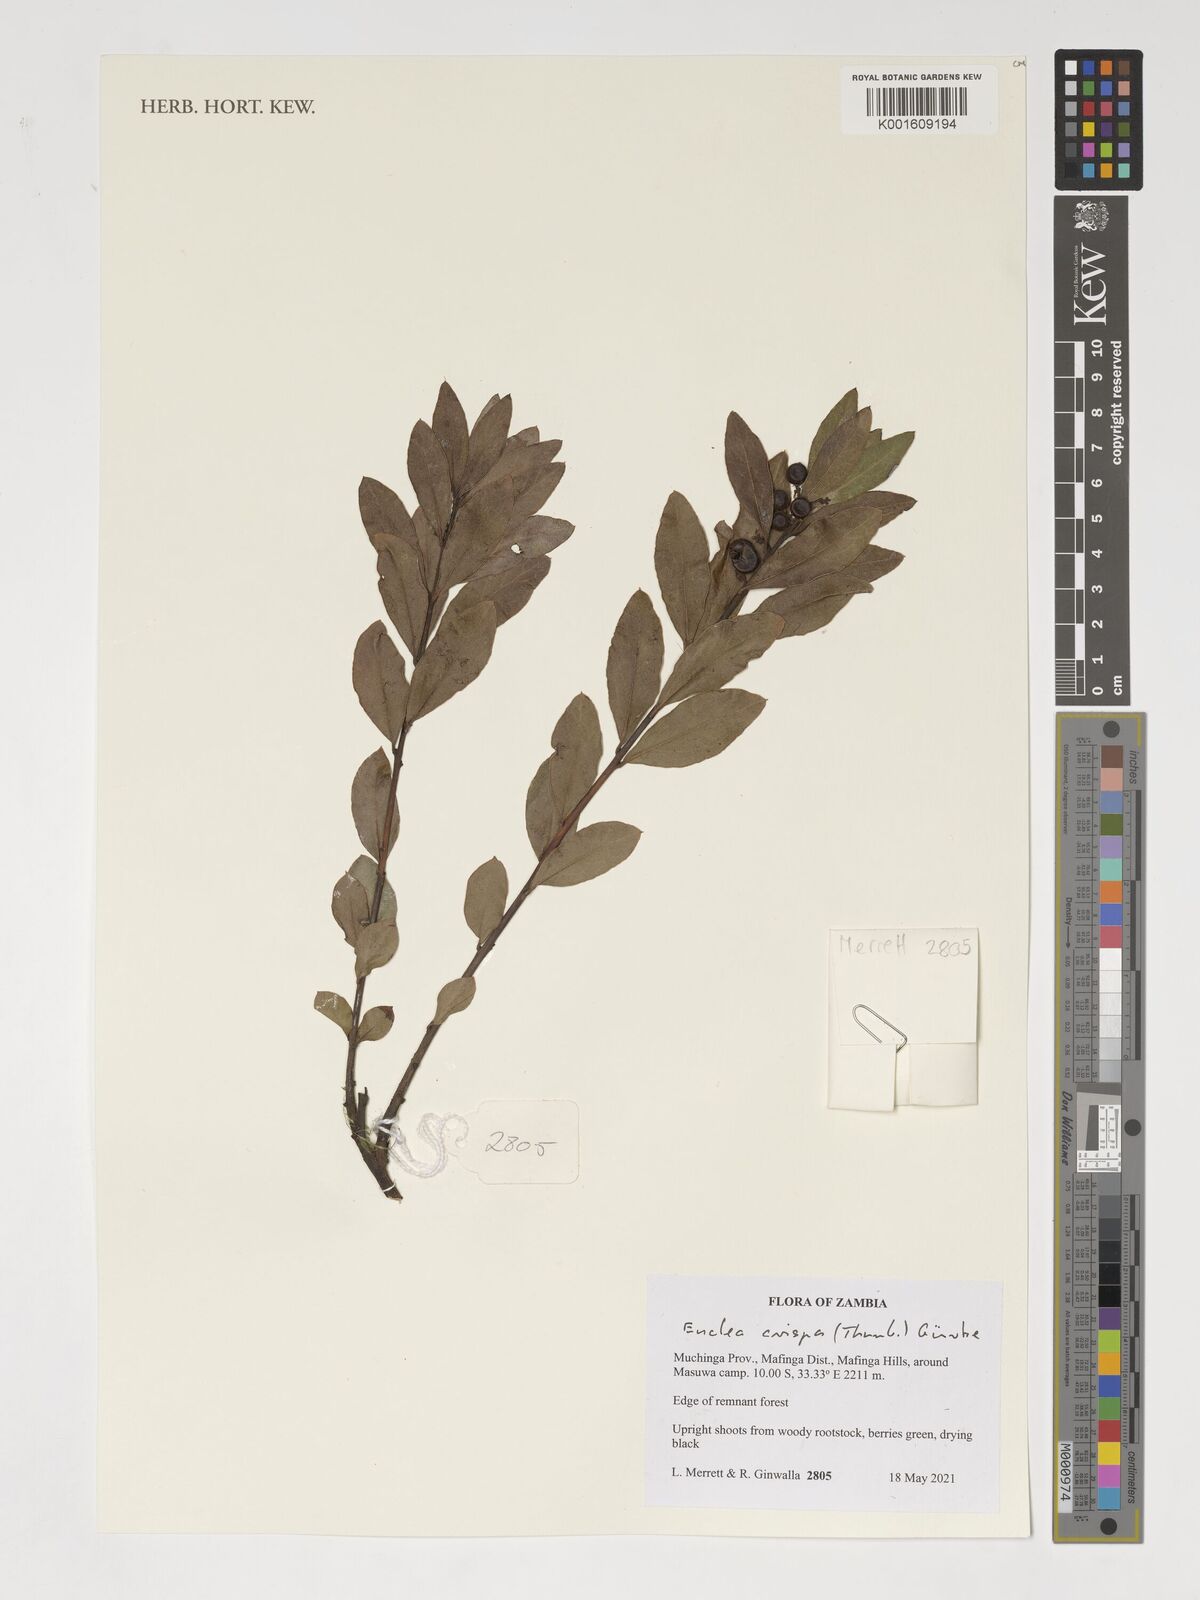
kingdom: Plantae
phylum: Tracheophyta
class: Magnoliopsida
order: Ericales
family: Ebenaceae
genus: Euclea
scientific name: Euclea crispa
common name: Blue guarri
